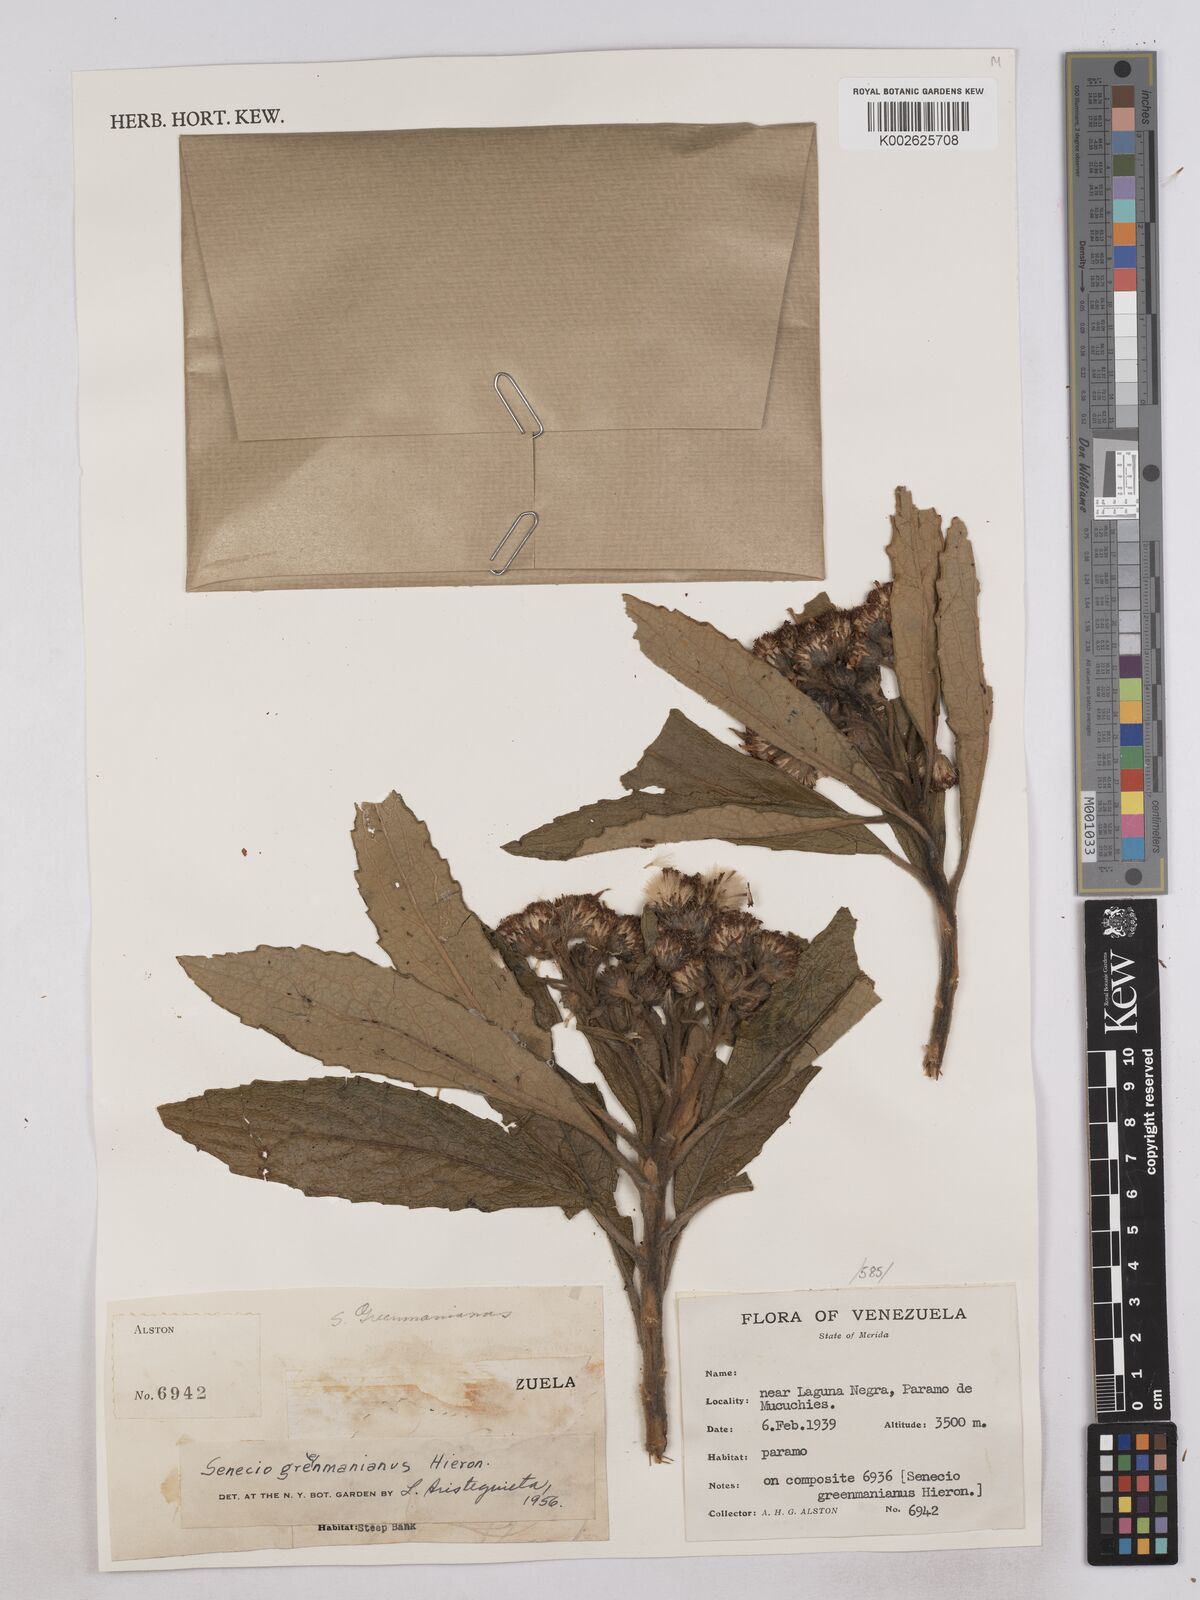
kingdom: Plantae
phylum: Tracheophyta
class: Magnoliopsida
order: Asterales
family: Asteraceae
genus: Monticalia
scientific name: Monticalia greenmaniana
